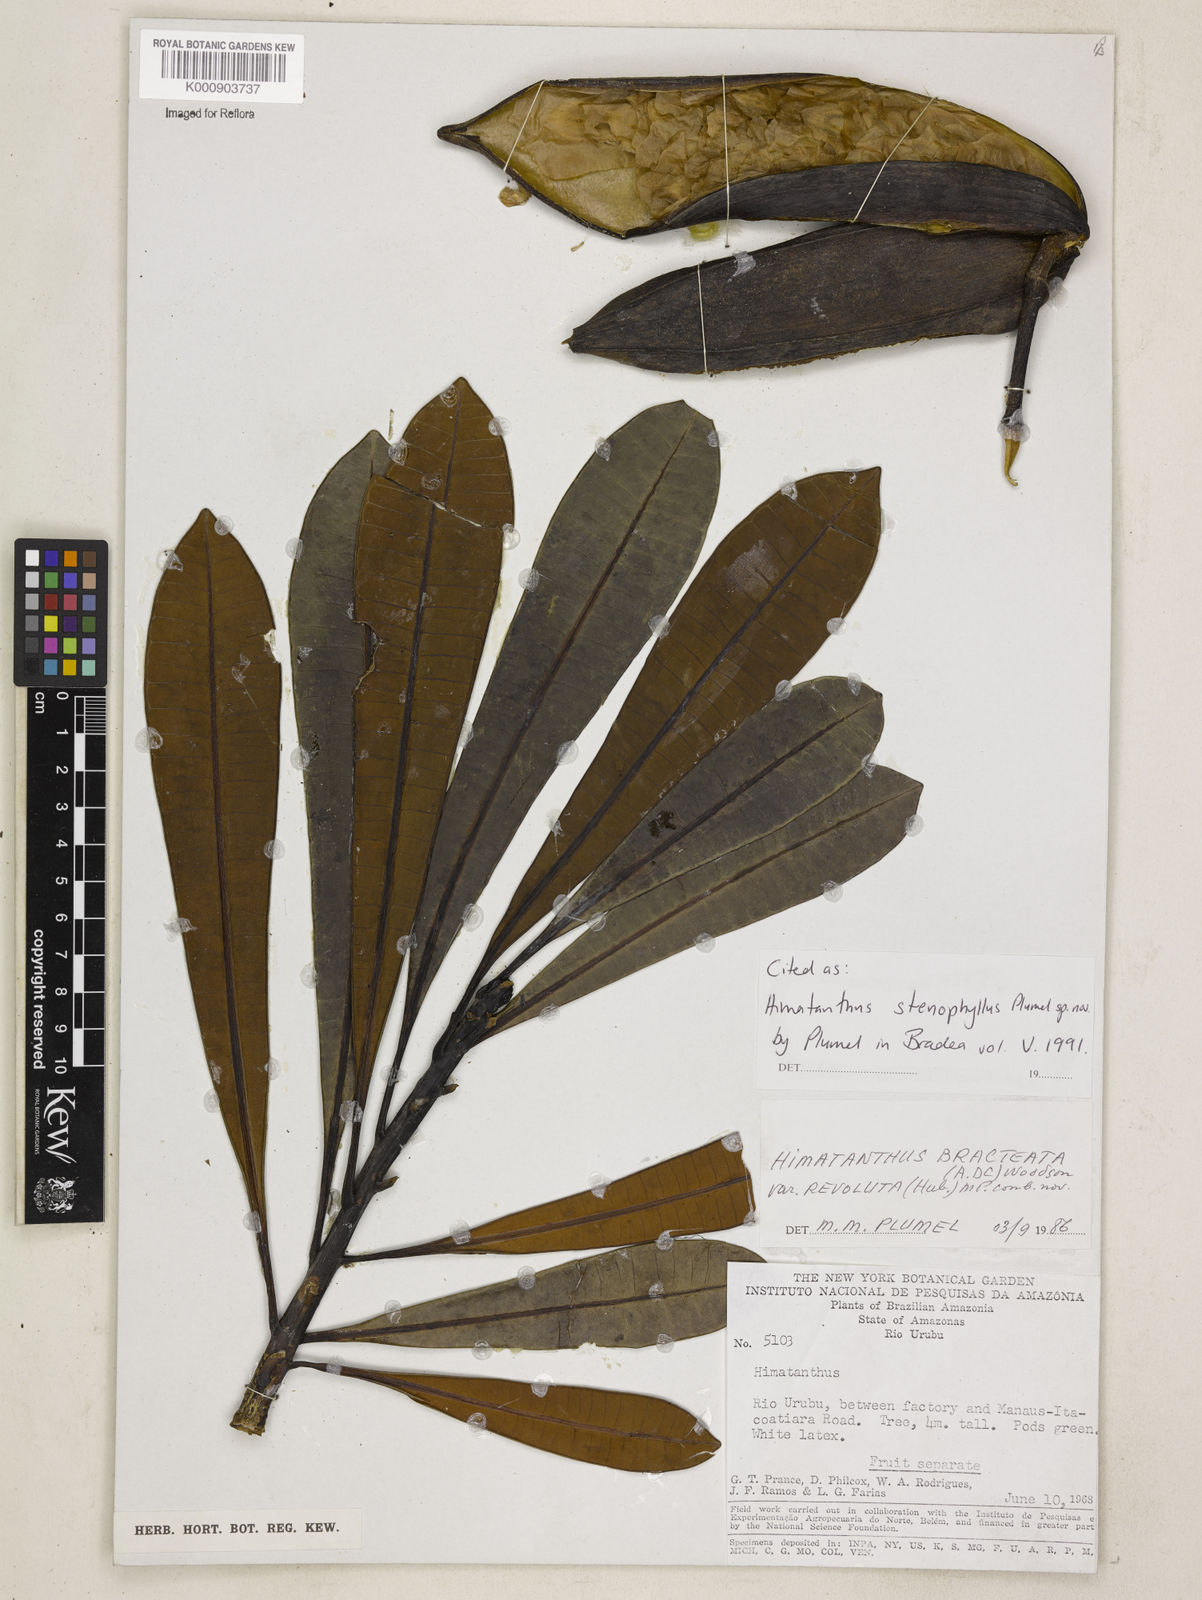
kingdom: Plantae
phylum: Tracheophyta
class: Magnoliopsida
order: Gentianales
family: Apocynaceae
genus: Himatanthus
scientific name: Himatanthus revolutus
